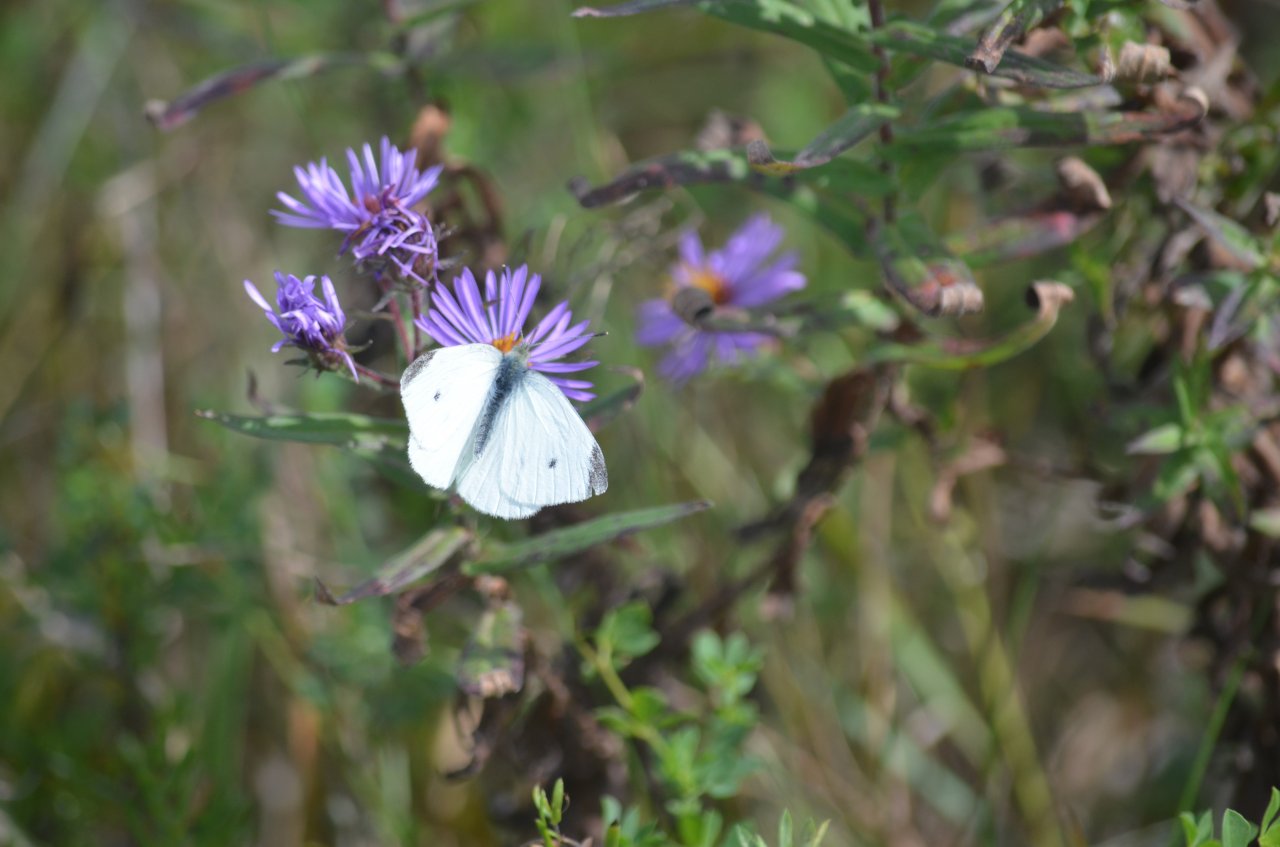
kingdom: Animalia
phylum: Arthropoda
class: Insecta
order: Lepidoptera
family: Pieridae
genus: Pieris
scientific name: Pieris rapae
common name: Cabbage White
